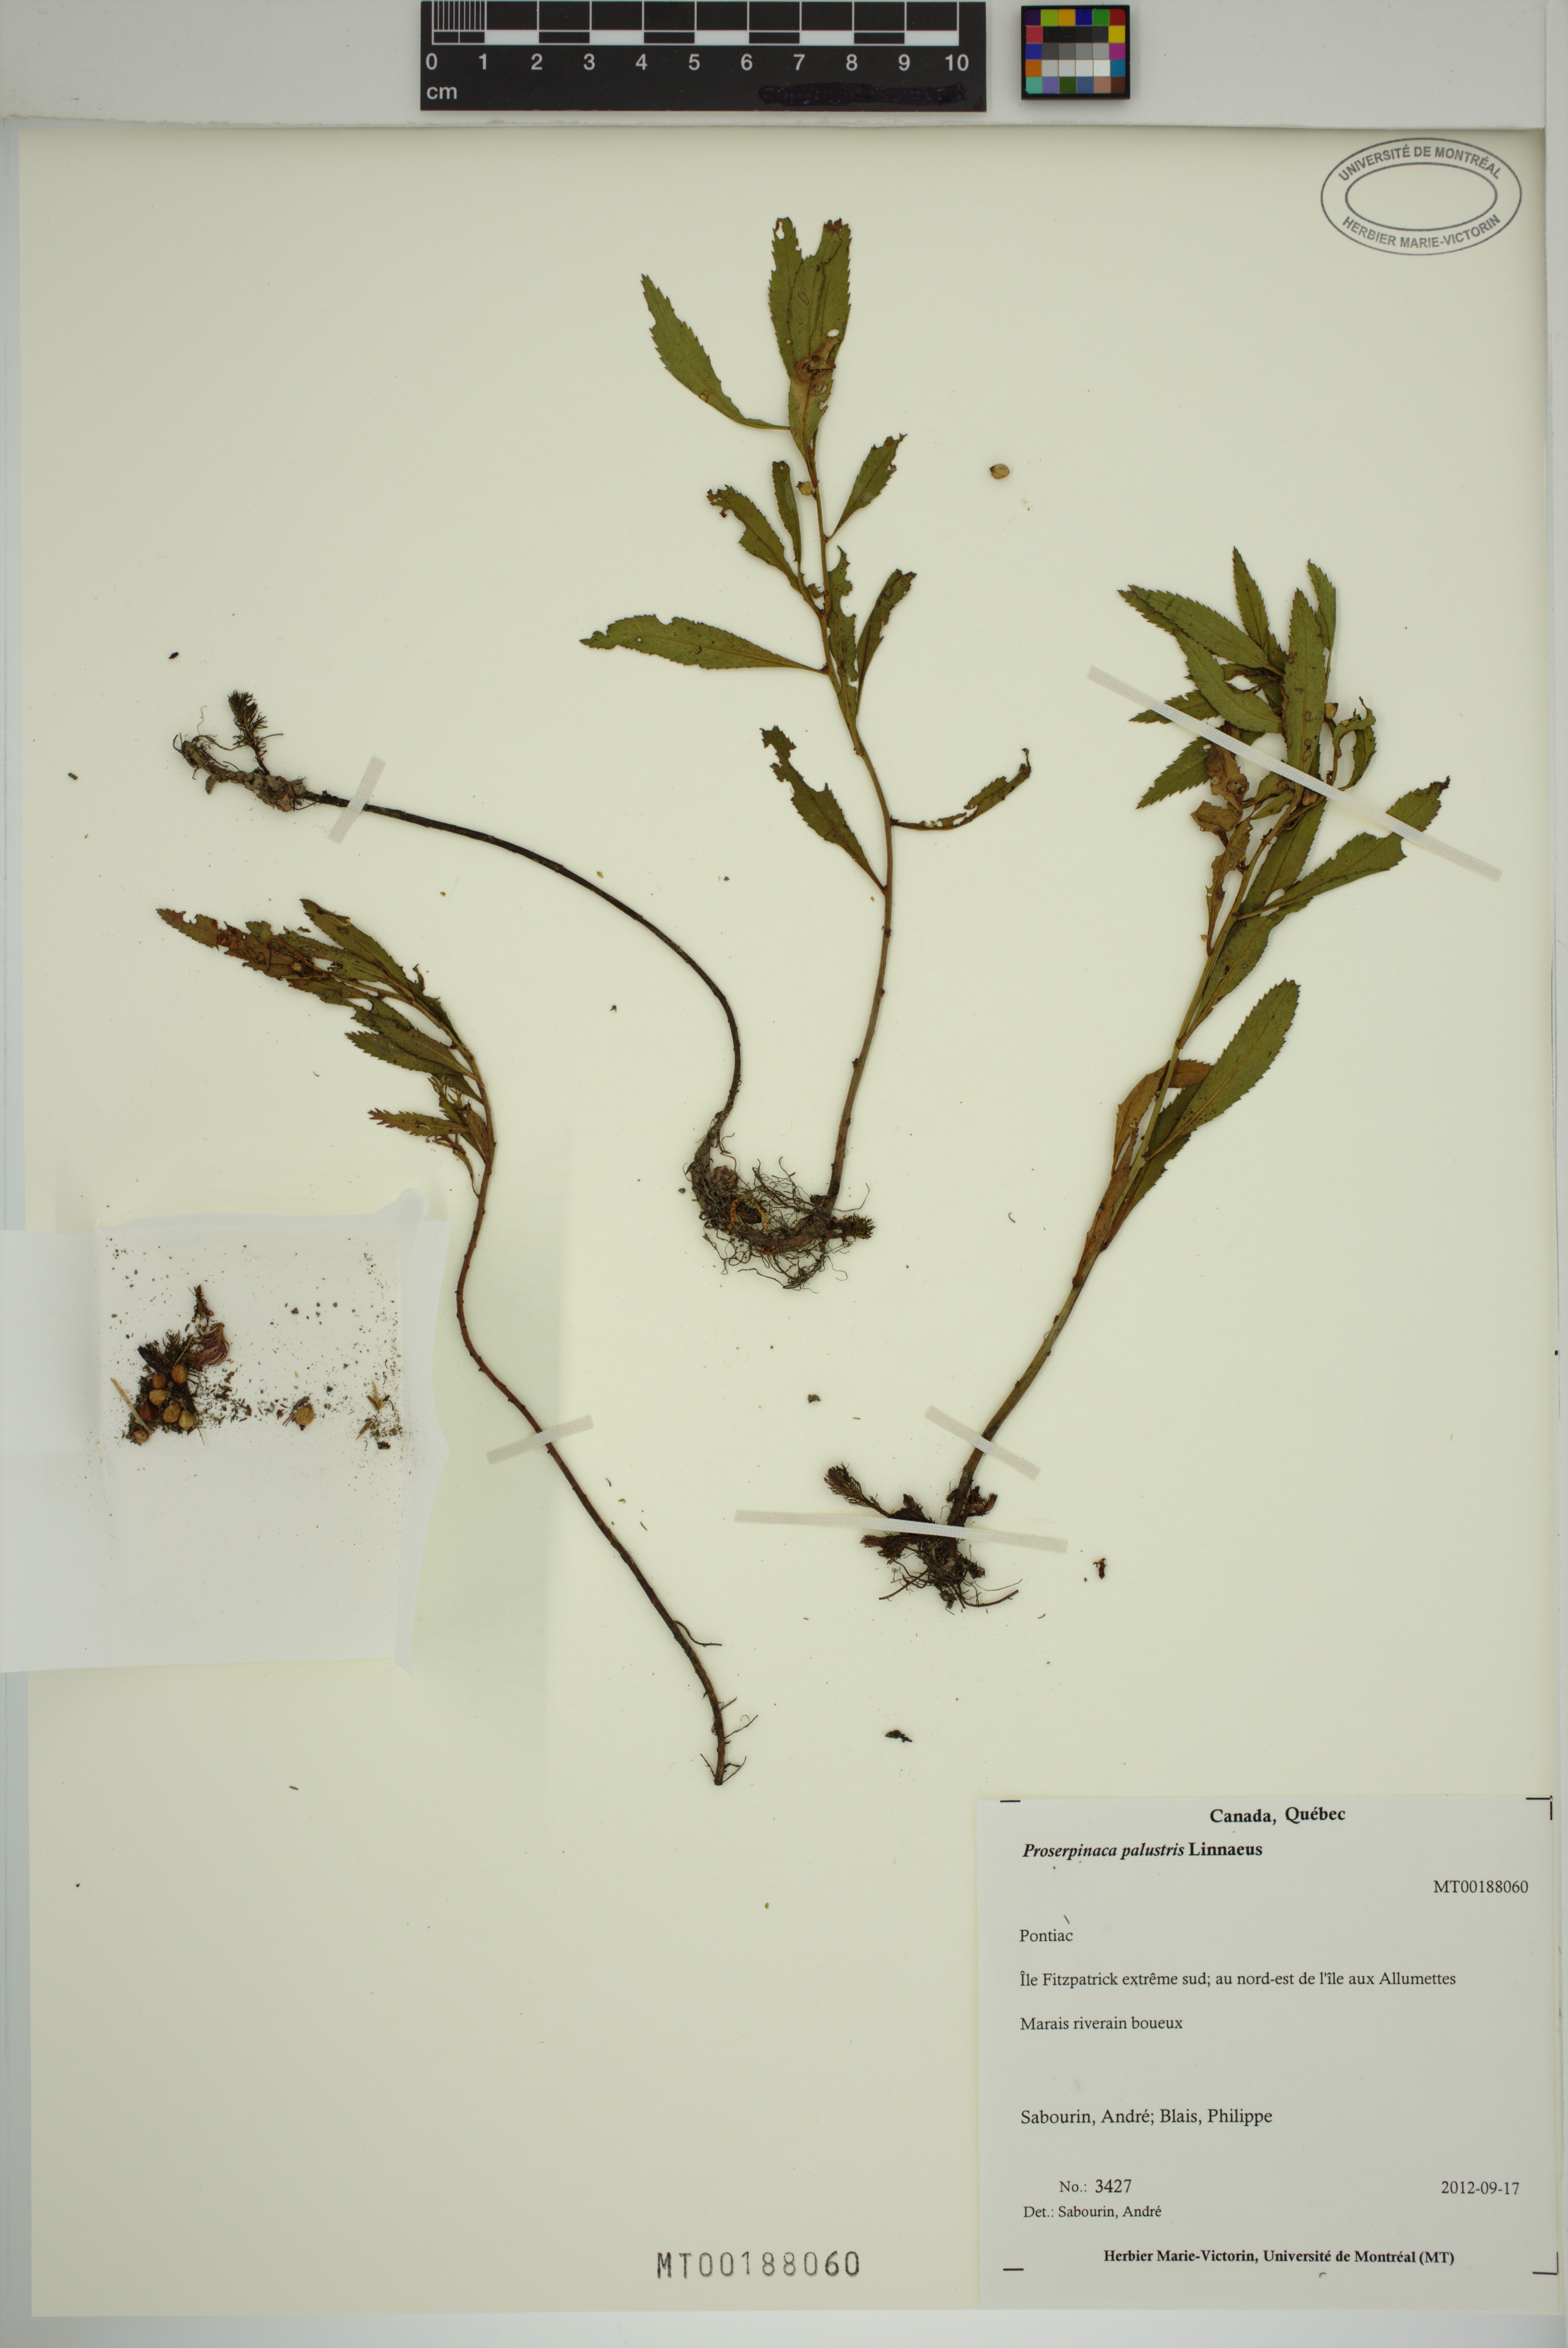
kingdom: Plantae
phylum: Tracheophyta
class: Magnoliopsida
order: Saxifragales
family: Haloragaceae
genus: Proserpinaca
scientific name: Proserpinaca palustris
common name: Marsh mermaidweed
